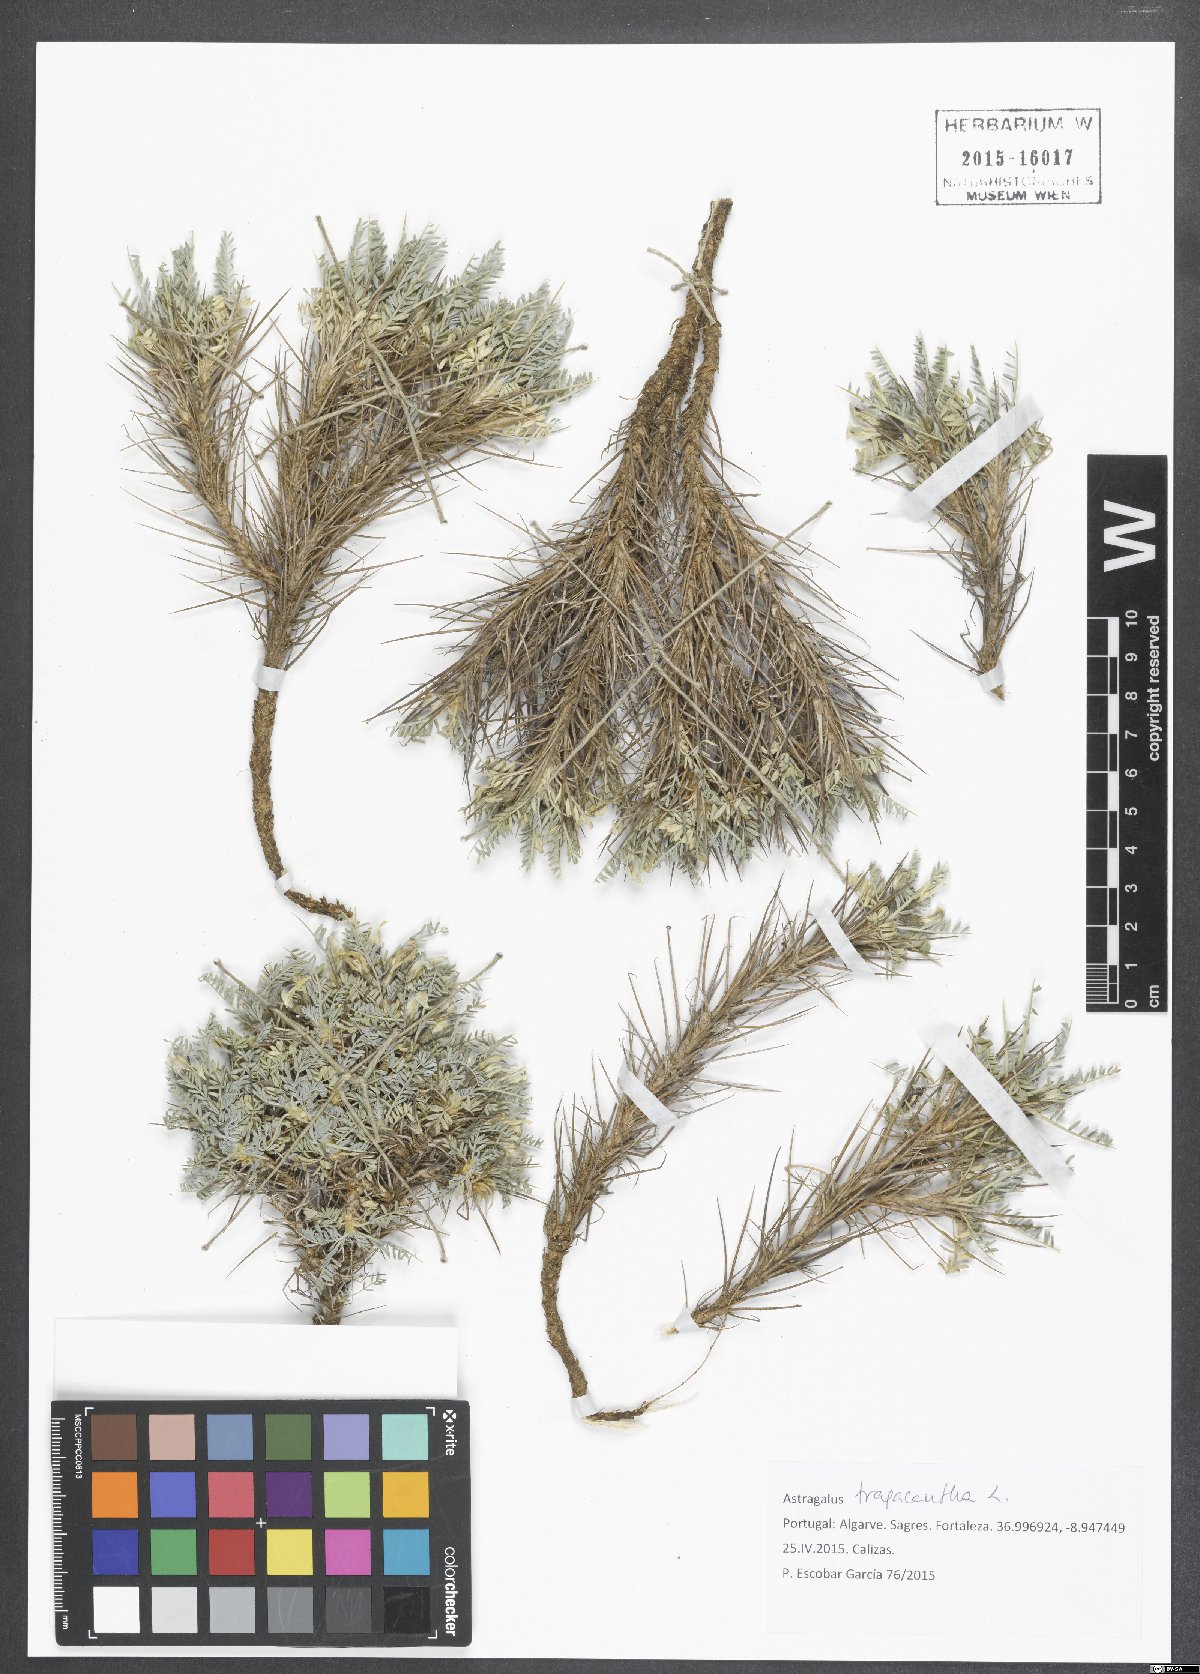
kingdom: Plantae
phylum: Tracheophyta
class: Magnoliopsida
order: Fabales
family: Fabaceae
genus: Astragalus
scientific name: Astragalus tragacantha
